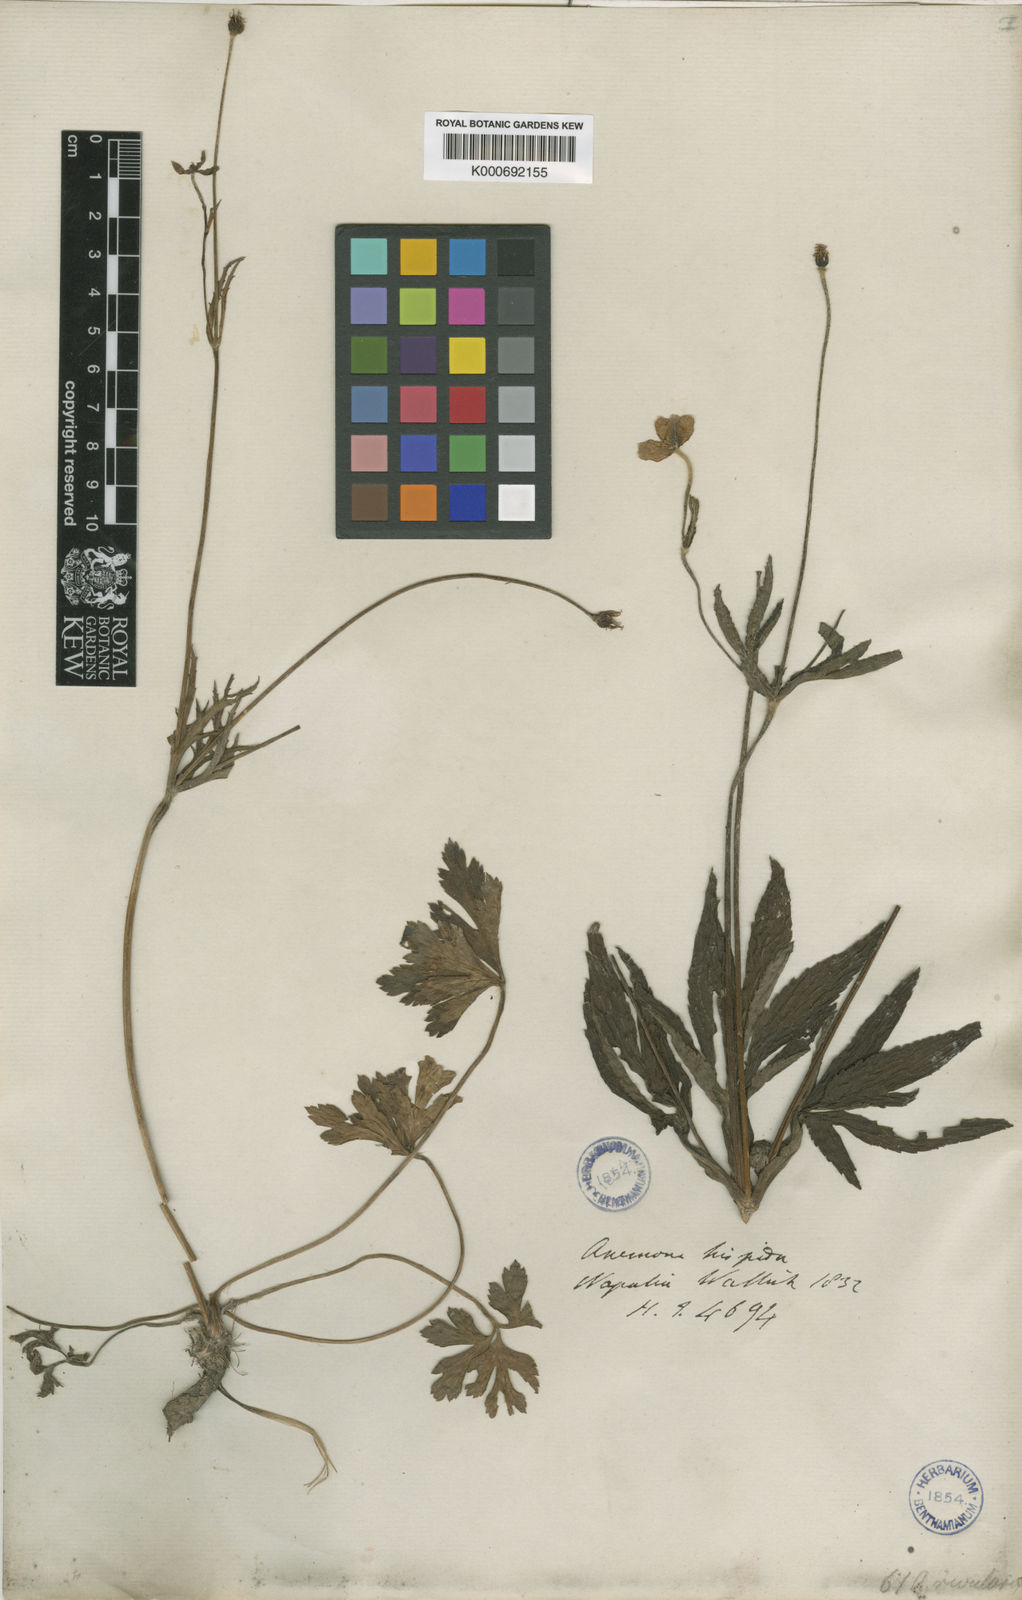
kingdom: Plantae
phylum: Tracheophyta
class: Magnoliopsida
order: Ranunculales
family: Ranunculaceae
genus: Eriocapitella
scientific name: Eriocapitella rivularis
